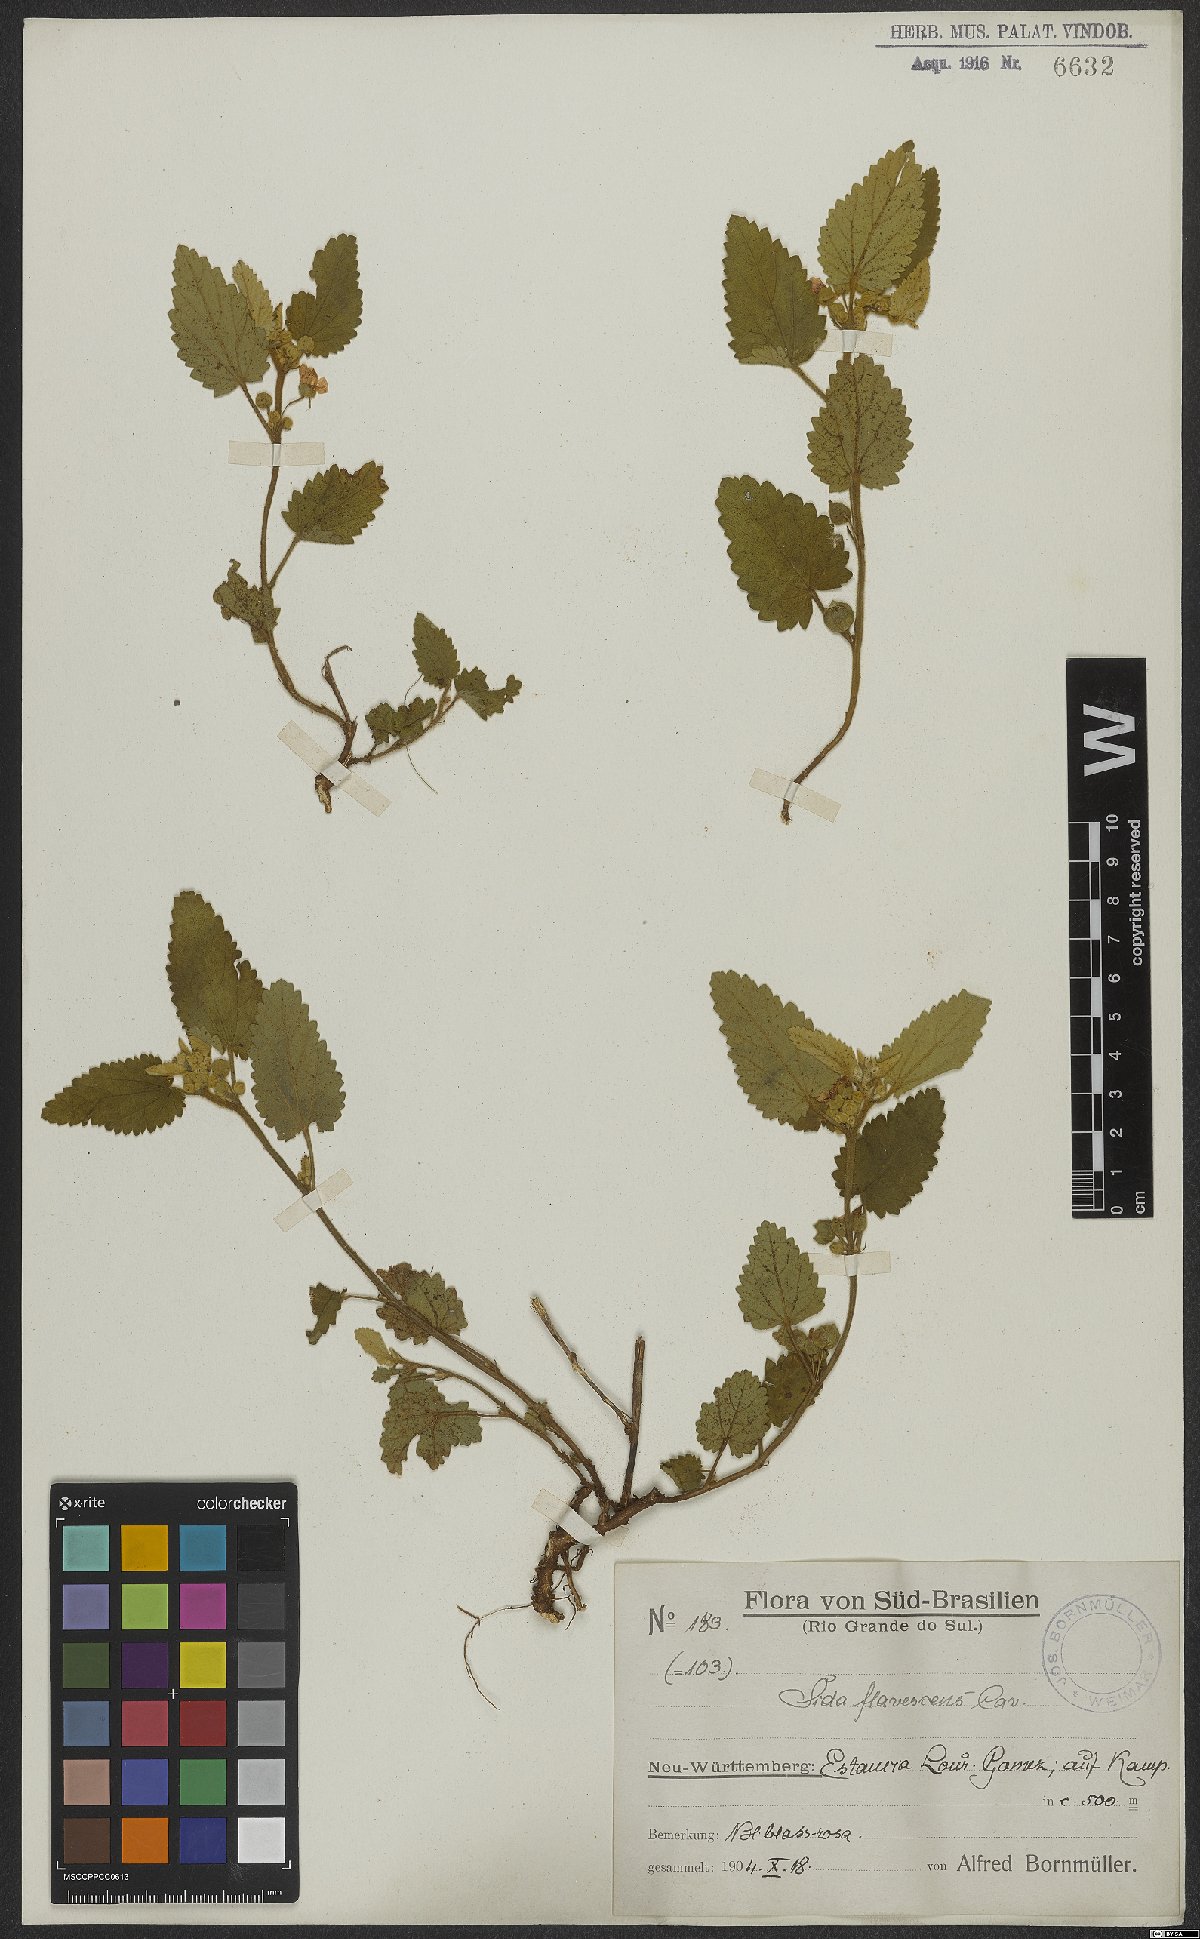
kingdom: Plantae
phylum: Tracheophyta
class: Magnoliopsida
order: Malvales
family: Malvaceae
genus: Krapovickasia
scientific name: Krapovickasia flavescens
